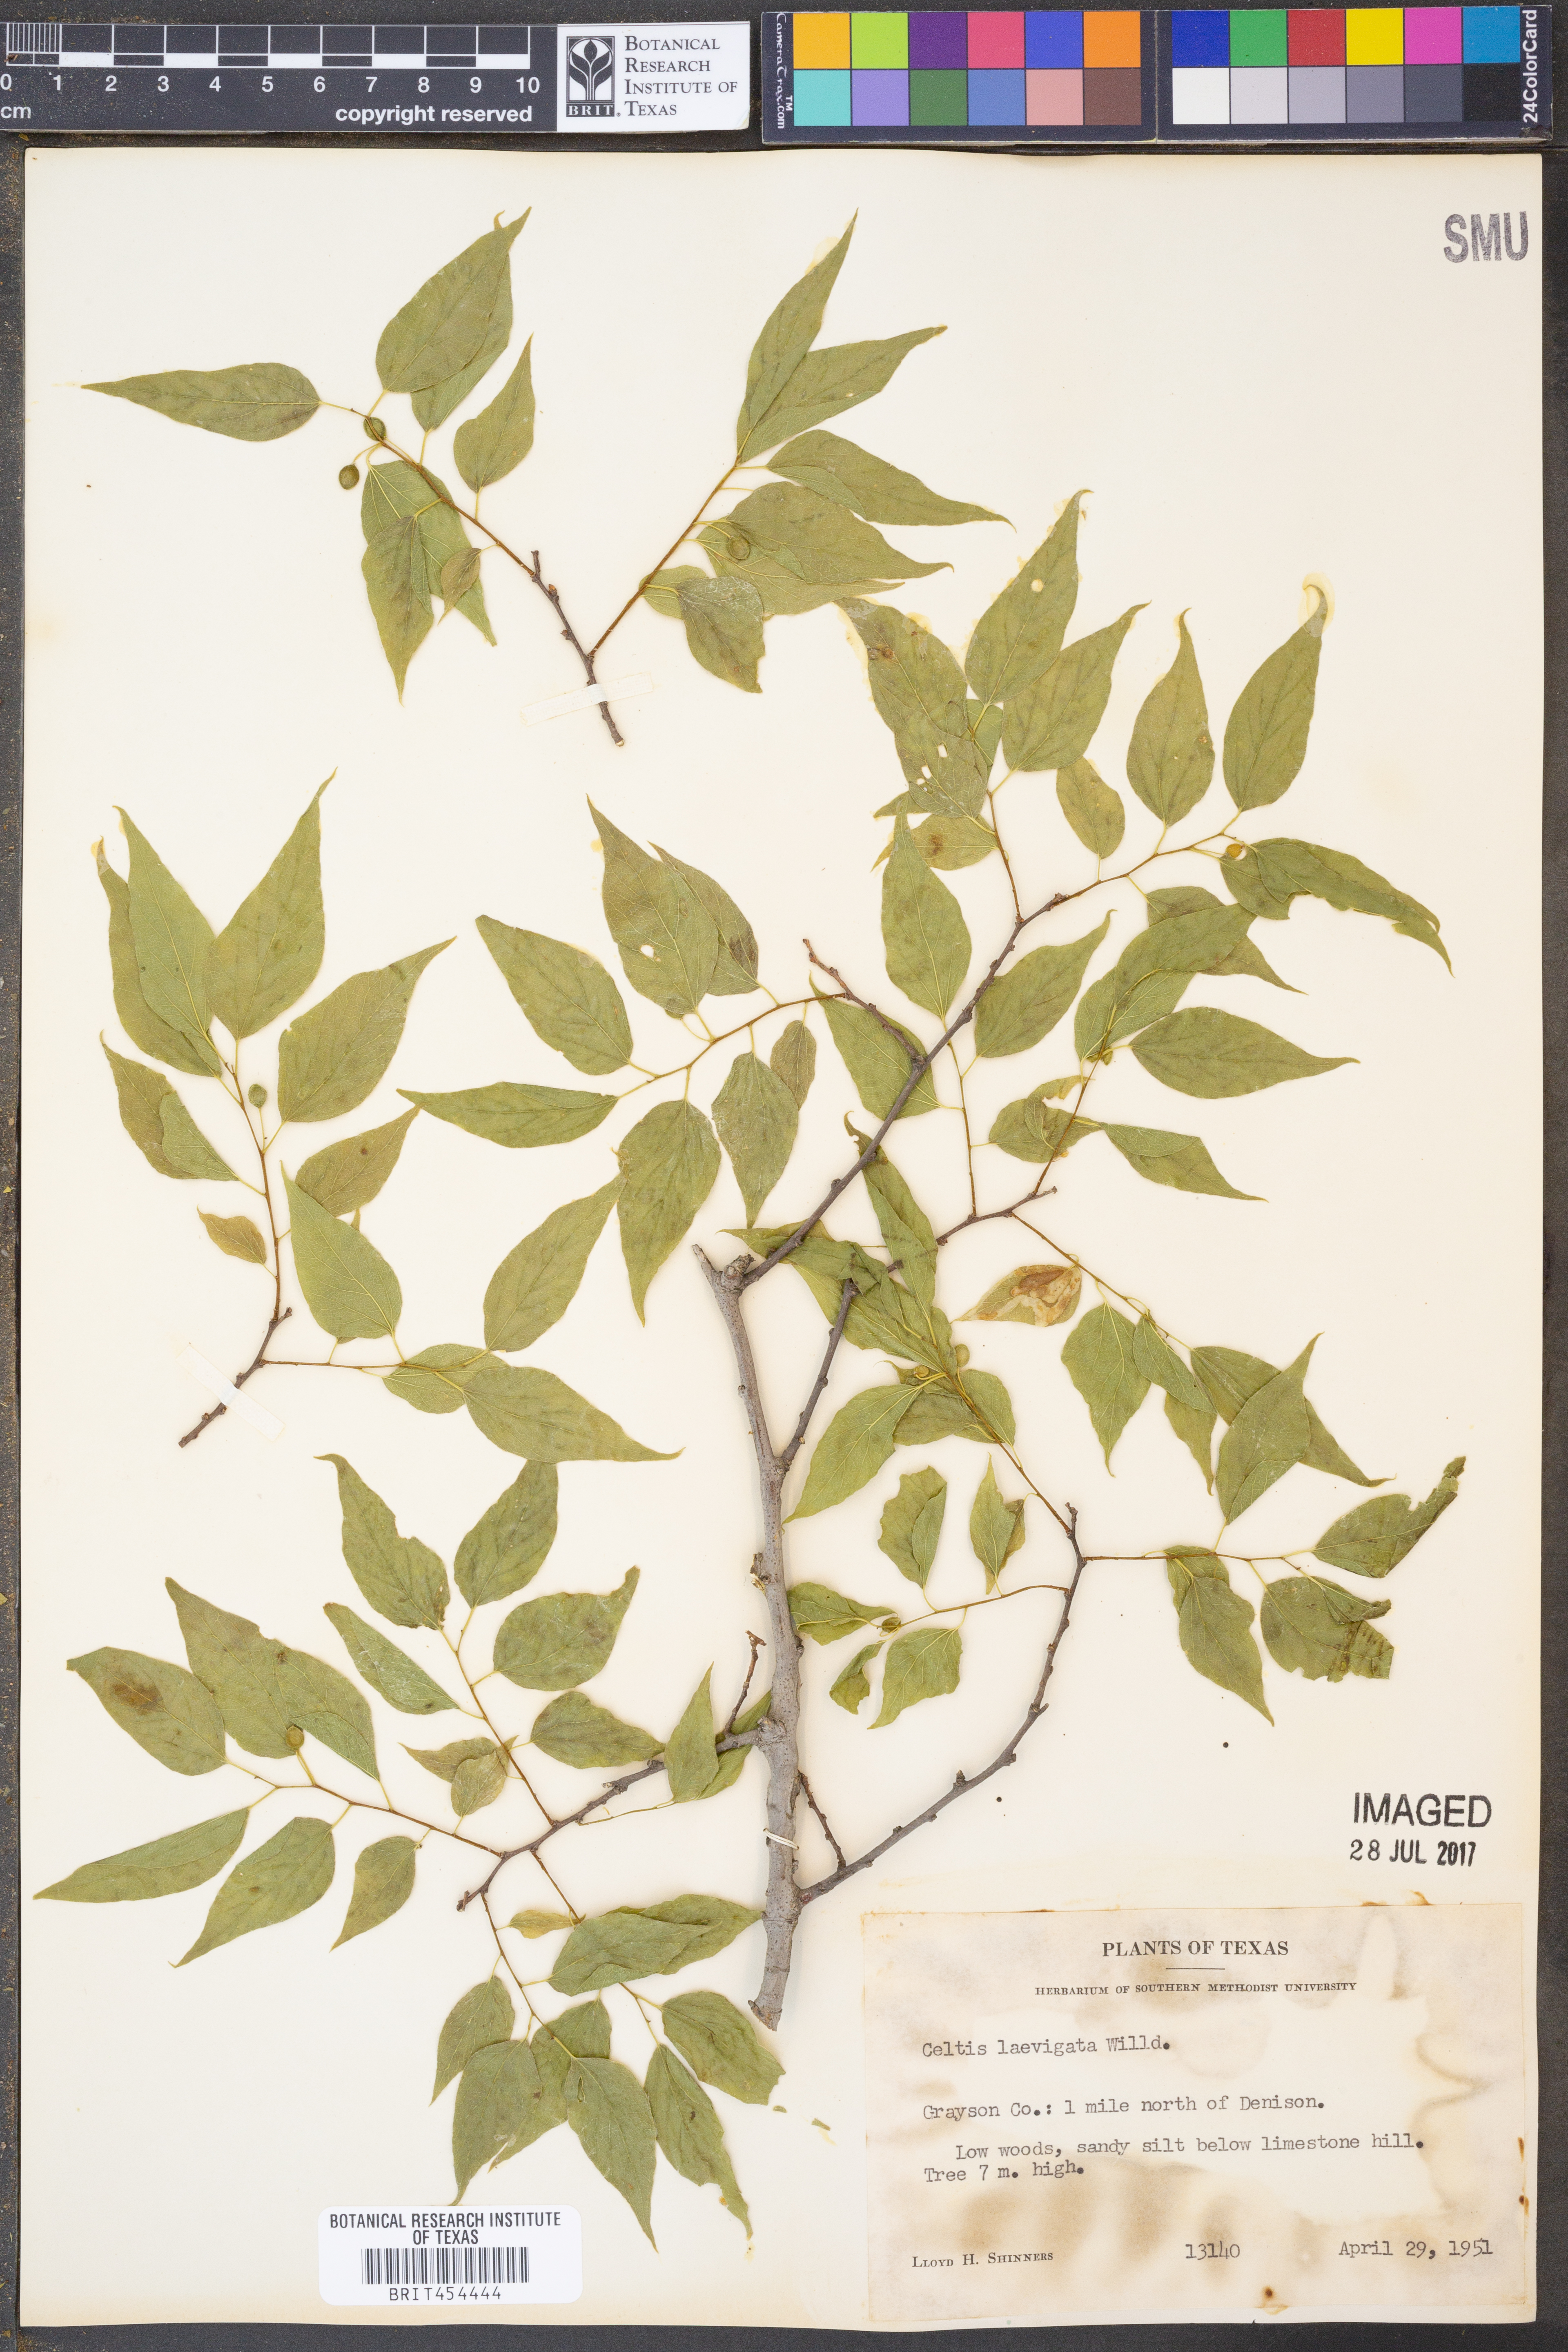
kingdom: Plantae
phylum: Tracheophyta
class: Magnoliopsida
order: Rosales
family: Cannabaceae
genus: Celtis
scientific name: Celtis laevigata
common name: Sugarberry
